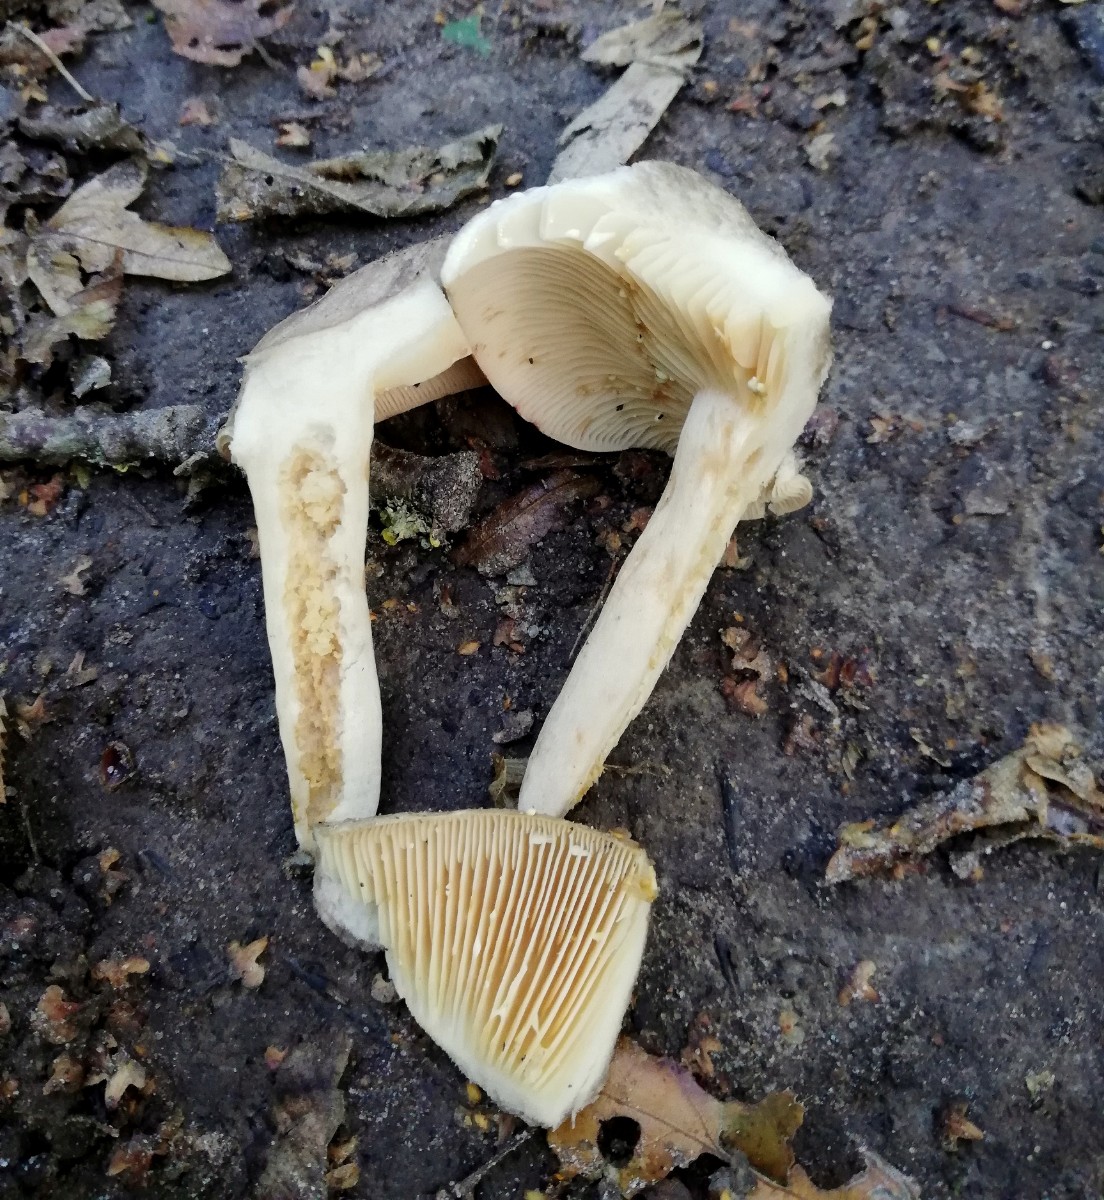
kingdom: Fungi
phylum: Basidiomycota
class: Agaricomycetes
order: Russulales
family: Russulaceae
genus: Lactarius
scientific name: Lactarius circellatus
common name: avnbøg-mælkehat
